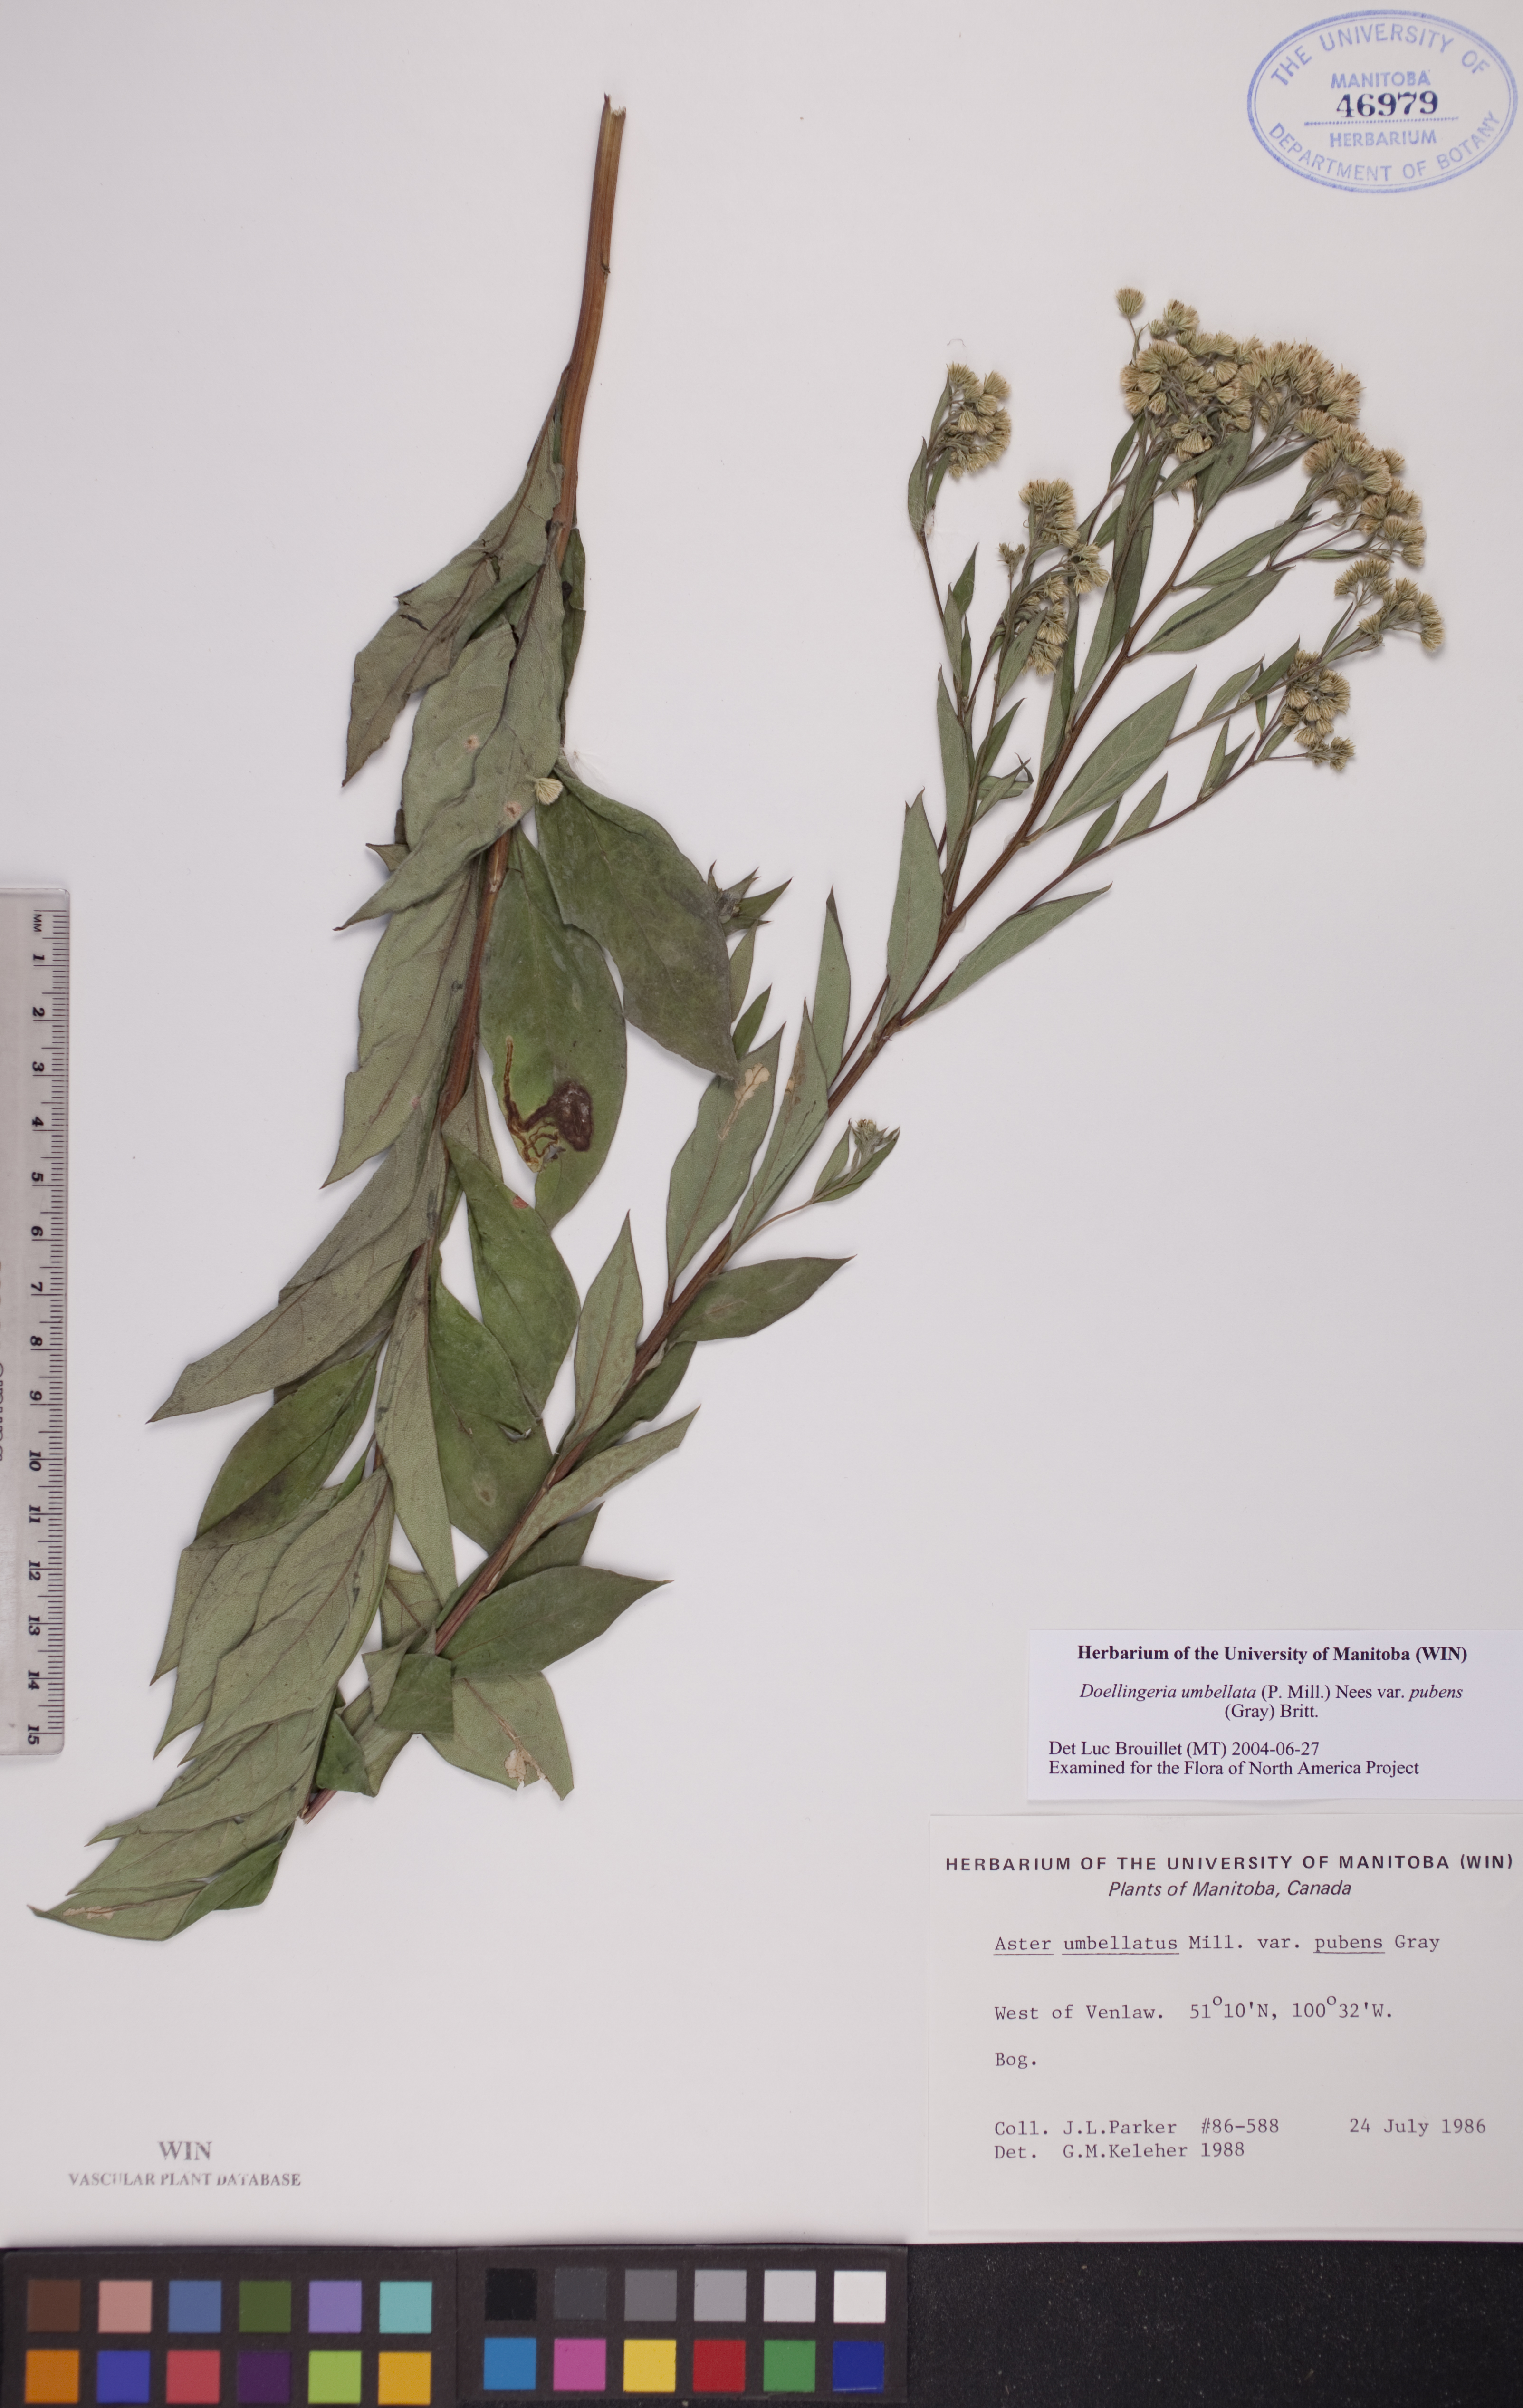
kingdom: Plantae
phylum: Tracheophyta
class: Magnoliopsida
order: Asterales
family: Asteraceae
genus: Doellingeria
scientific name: Doellingeria umbellata
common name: Flat-top white aster
